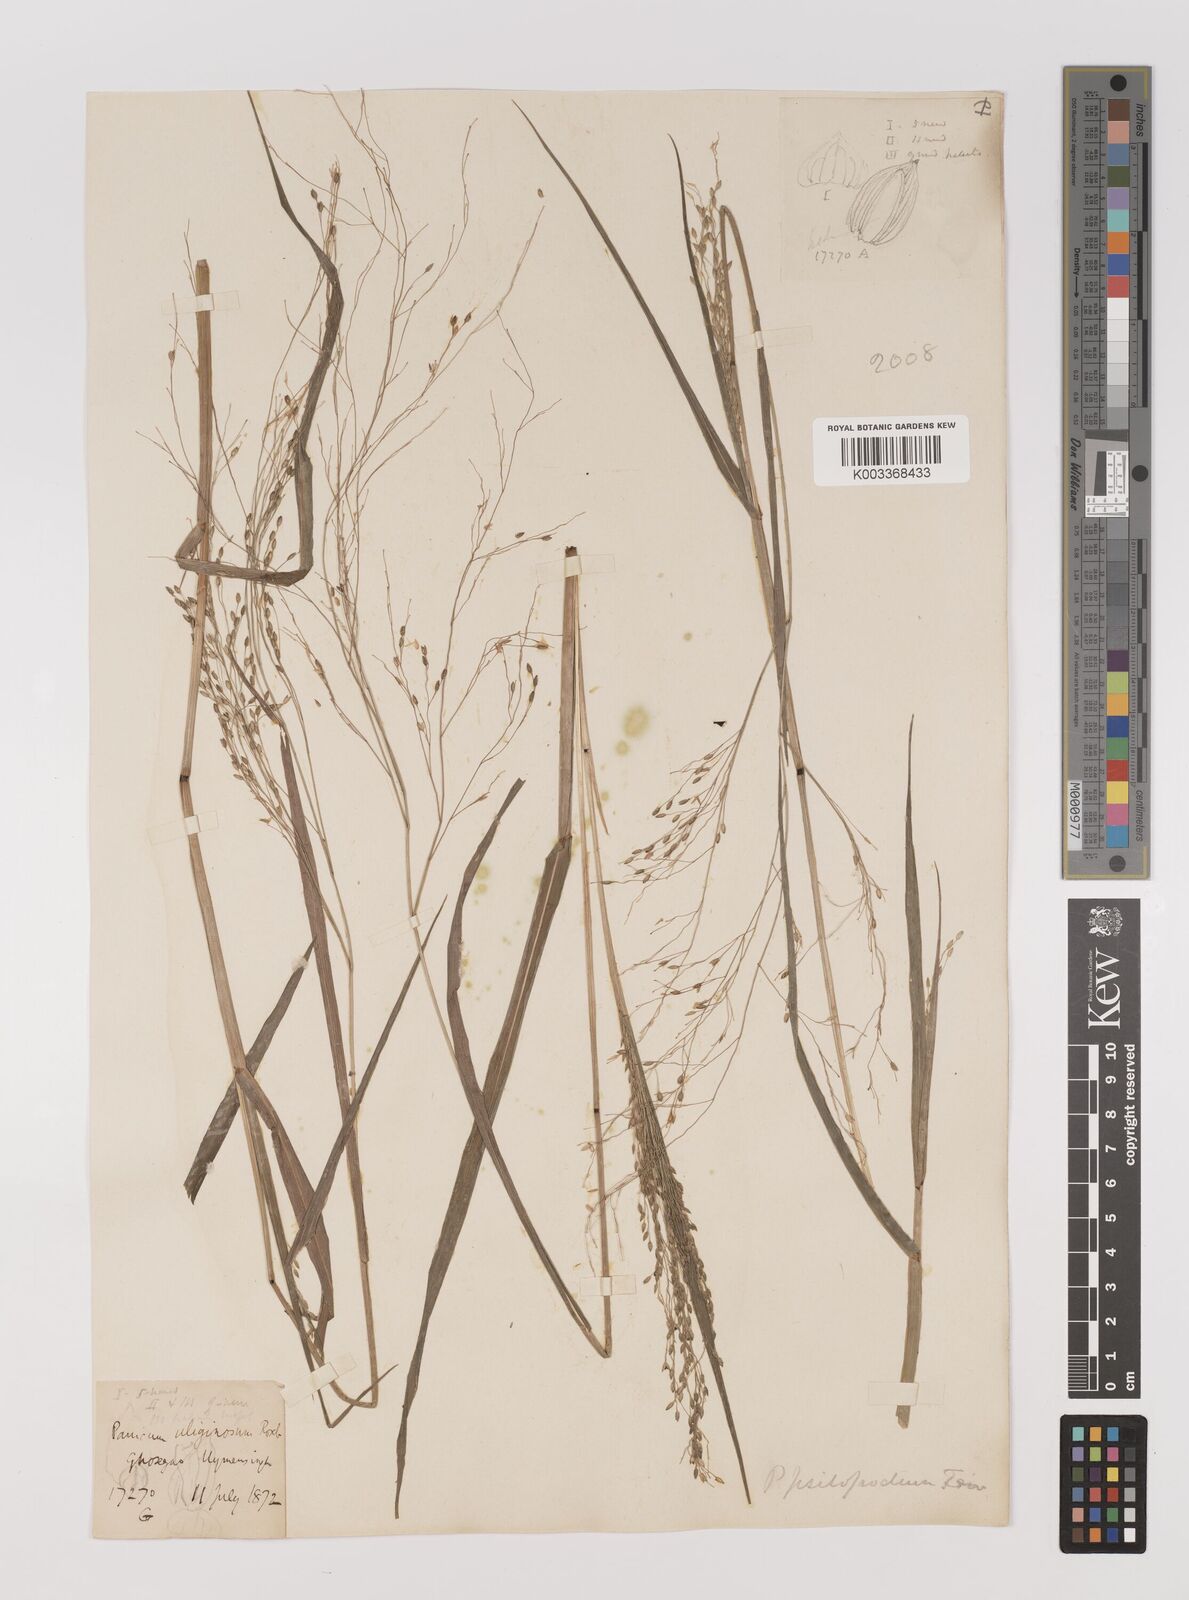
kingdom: Plantae
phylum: Tracheophyta
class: Liliopsida
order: Poales
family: Poaceae
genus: Panicum
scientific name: Panicum sumatrense
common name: Little millet
